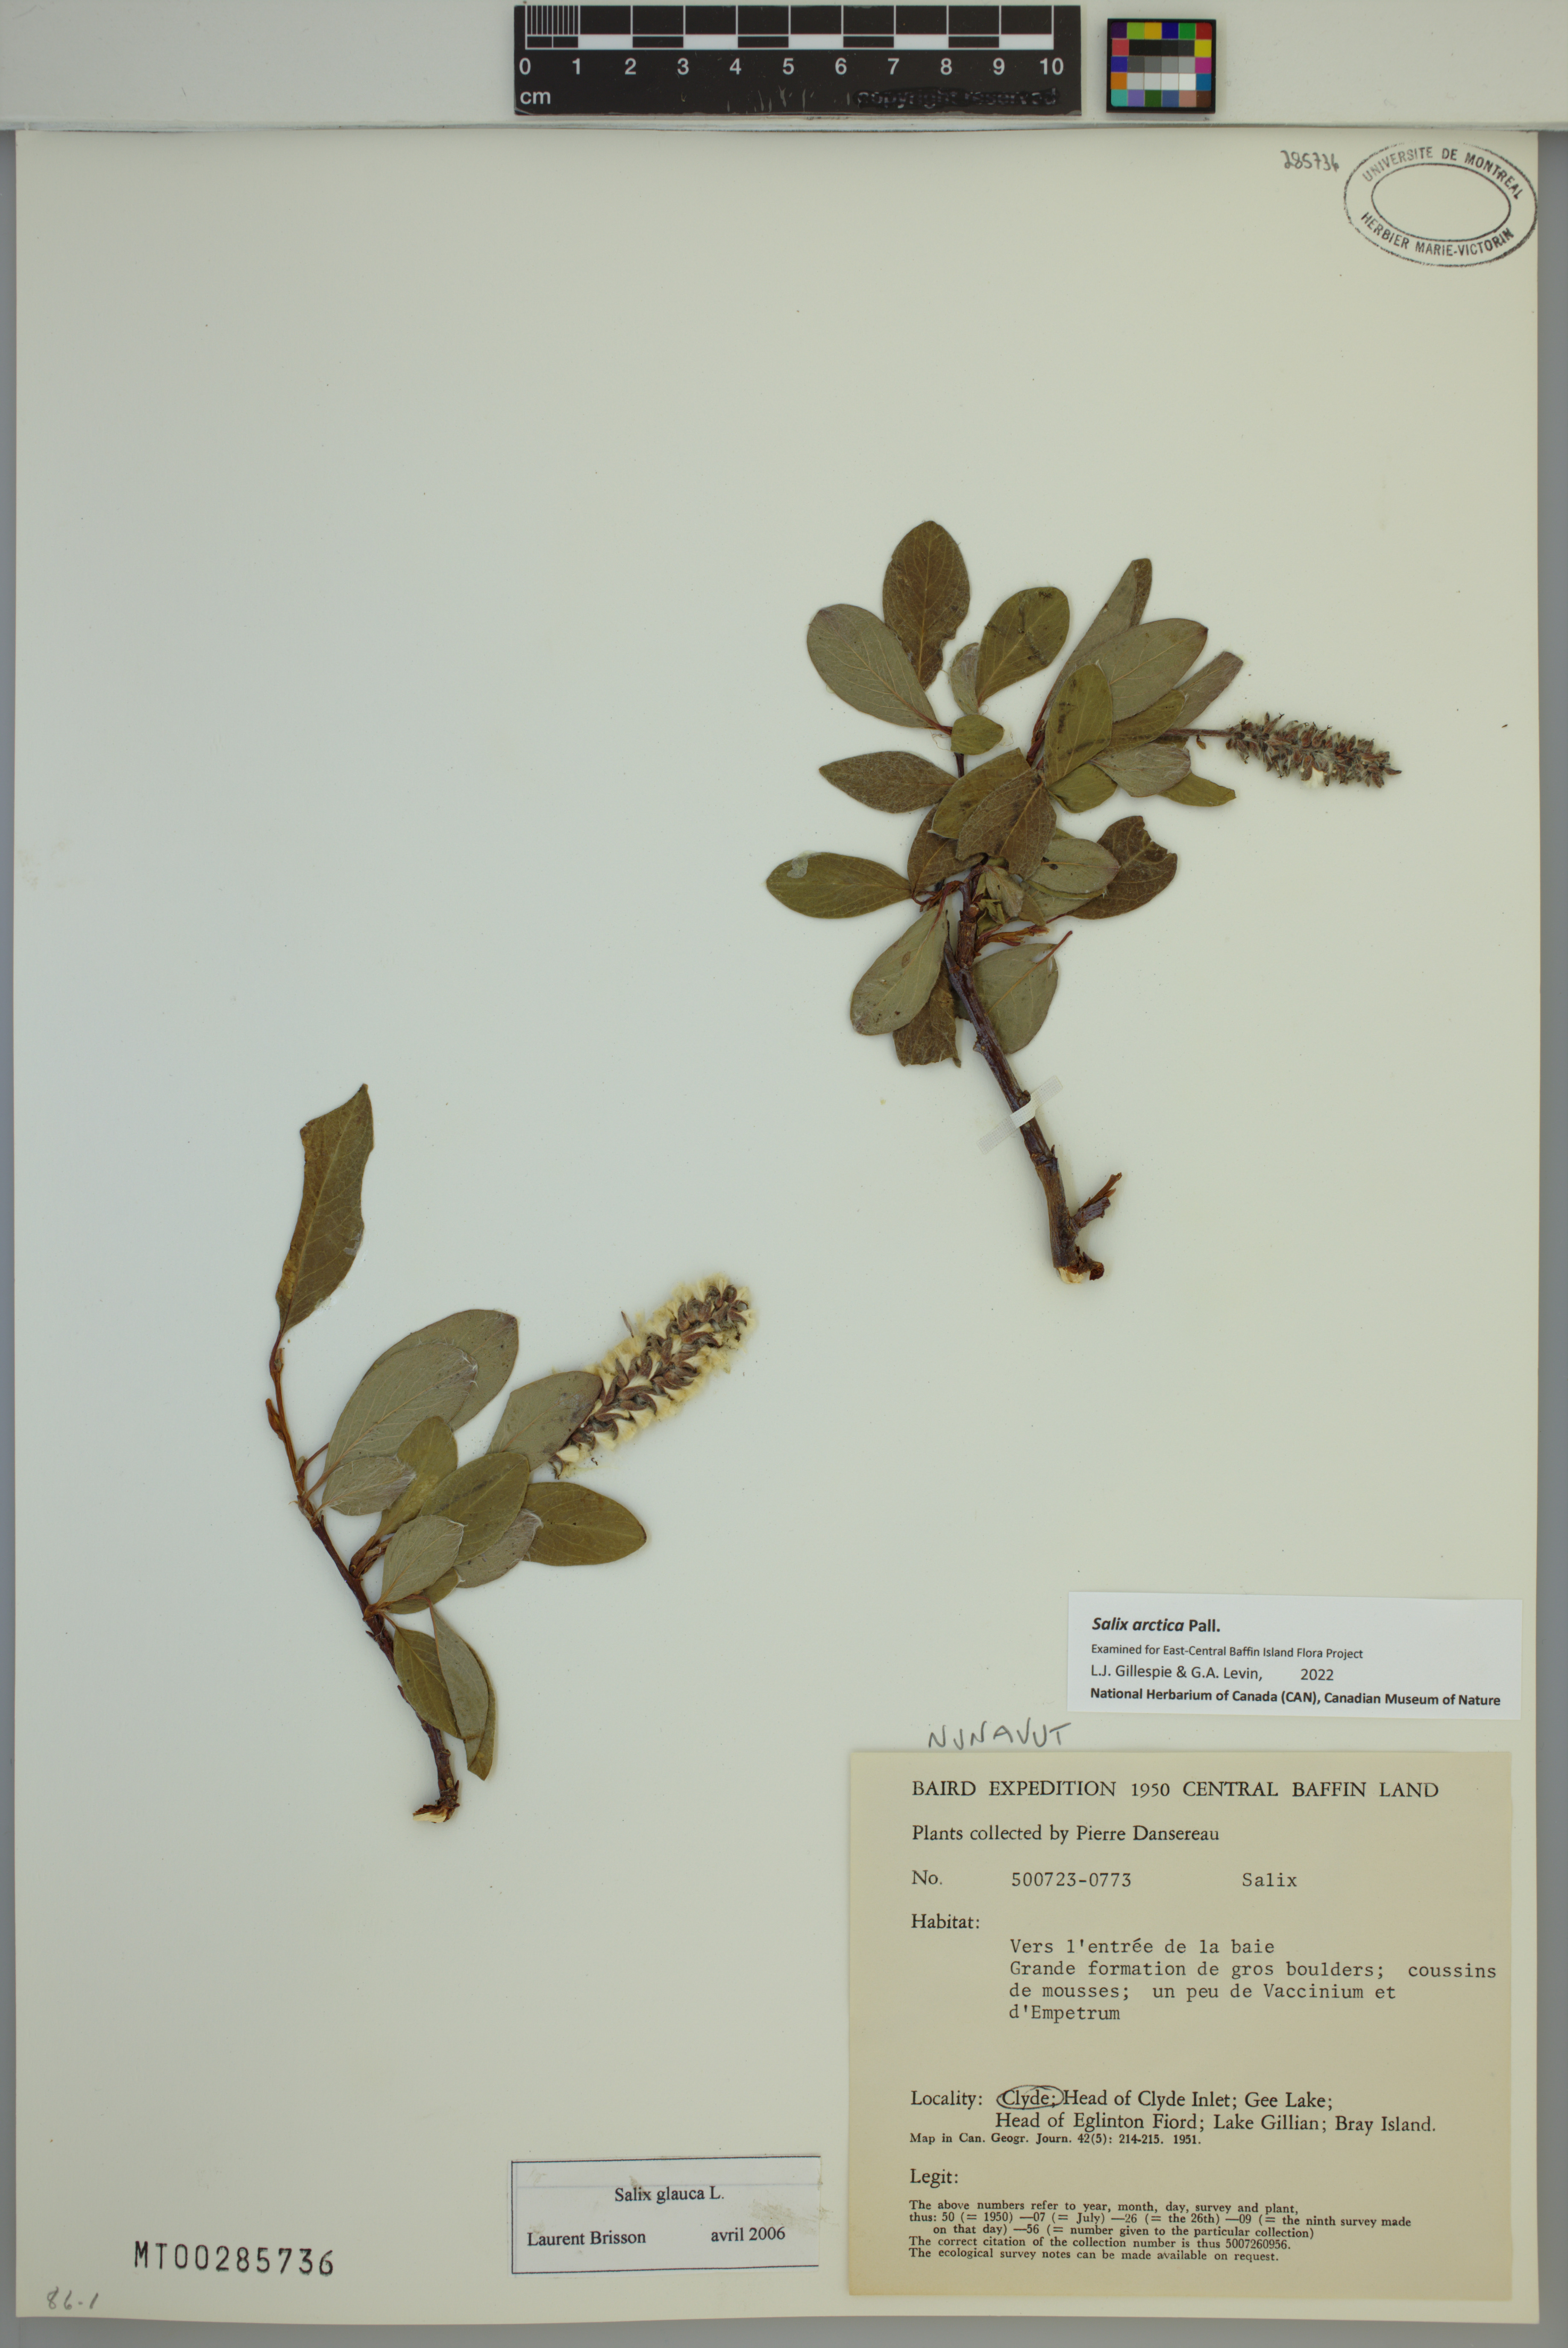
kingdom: Plantae
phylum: Tracheophyta
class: Magnoliopsida
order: Malpighiales
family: Salicaceae
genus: Salix
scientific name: Salix arctica
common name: Arctic willow
